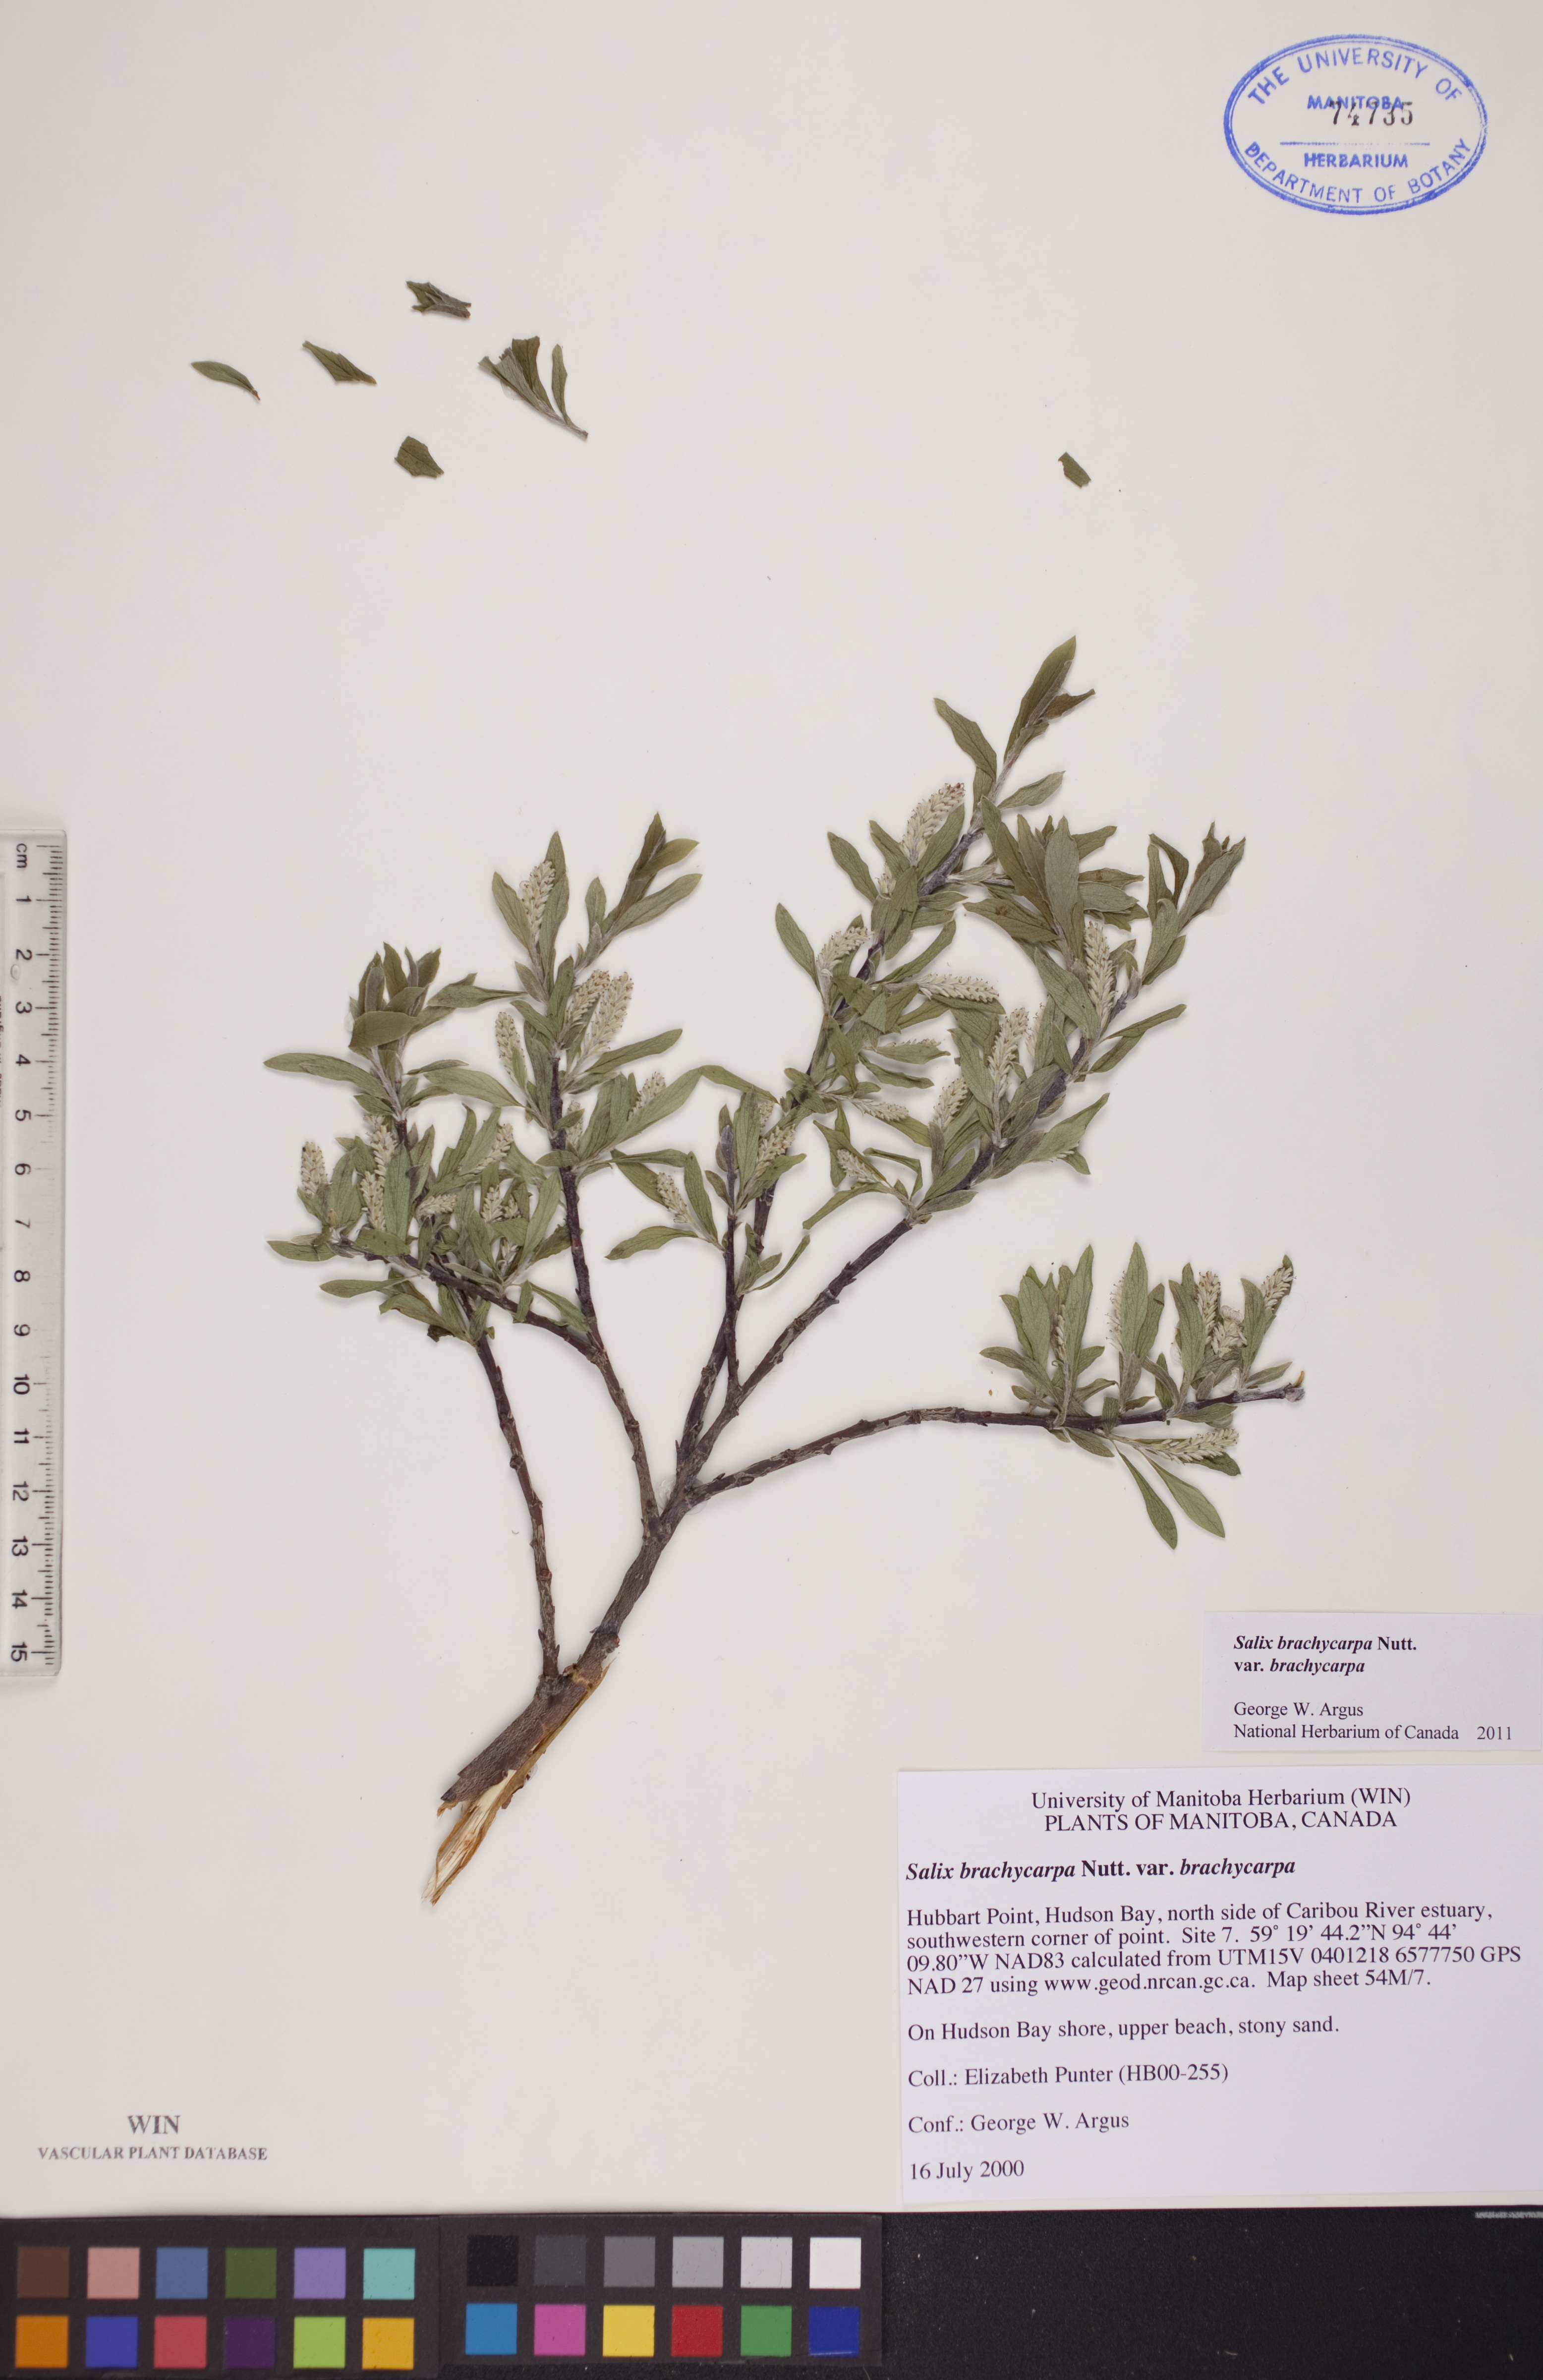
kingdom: Plantae
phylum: Tracheophyta
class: Magnoliopsida
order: Malpighiales
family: Salicaceae
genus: Salix
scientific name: Salix brachycarpa
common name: Barren-ground willow
